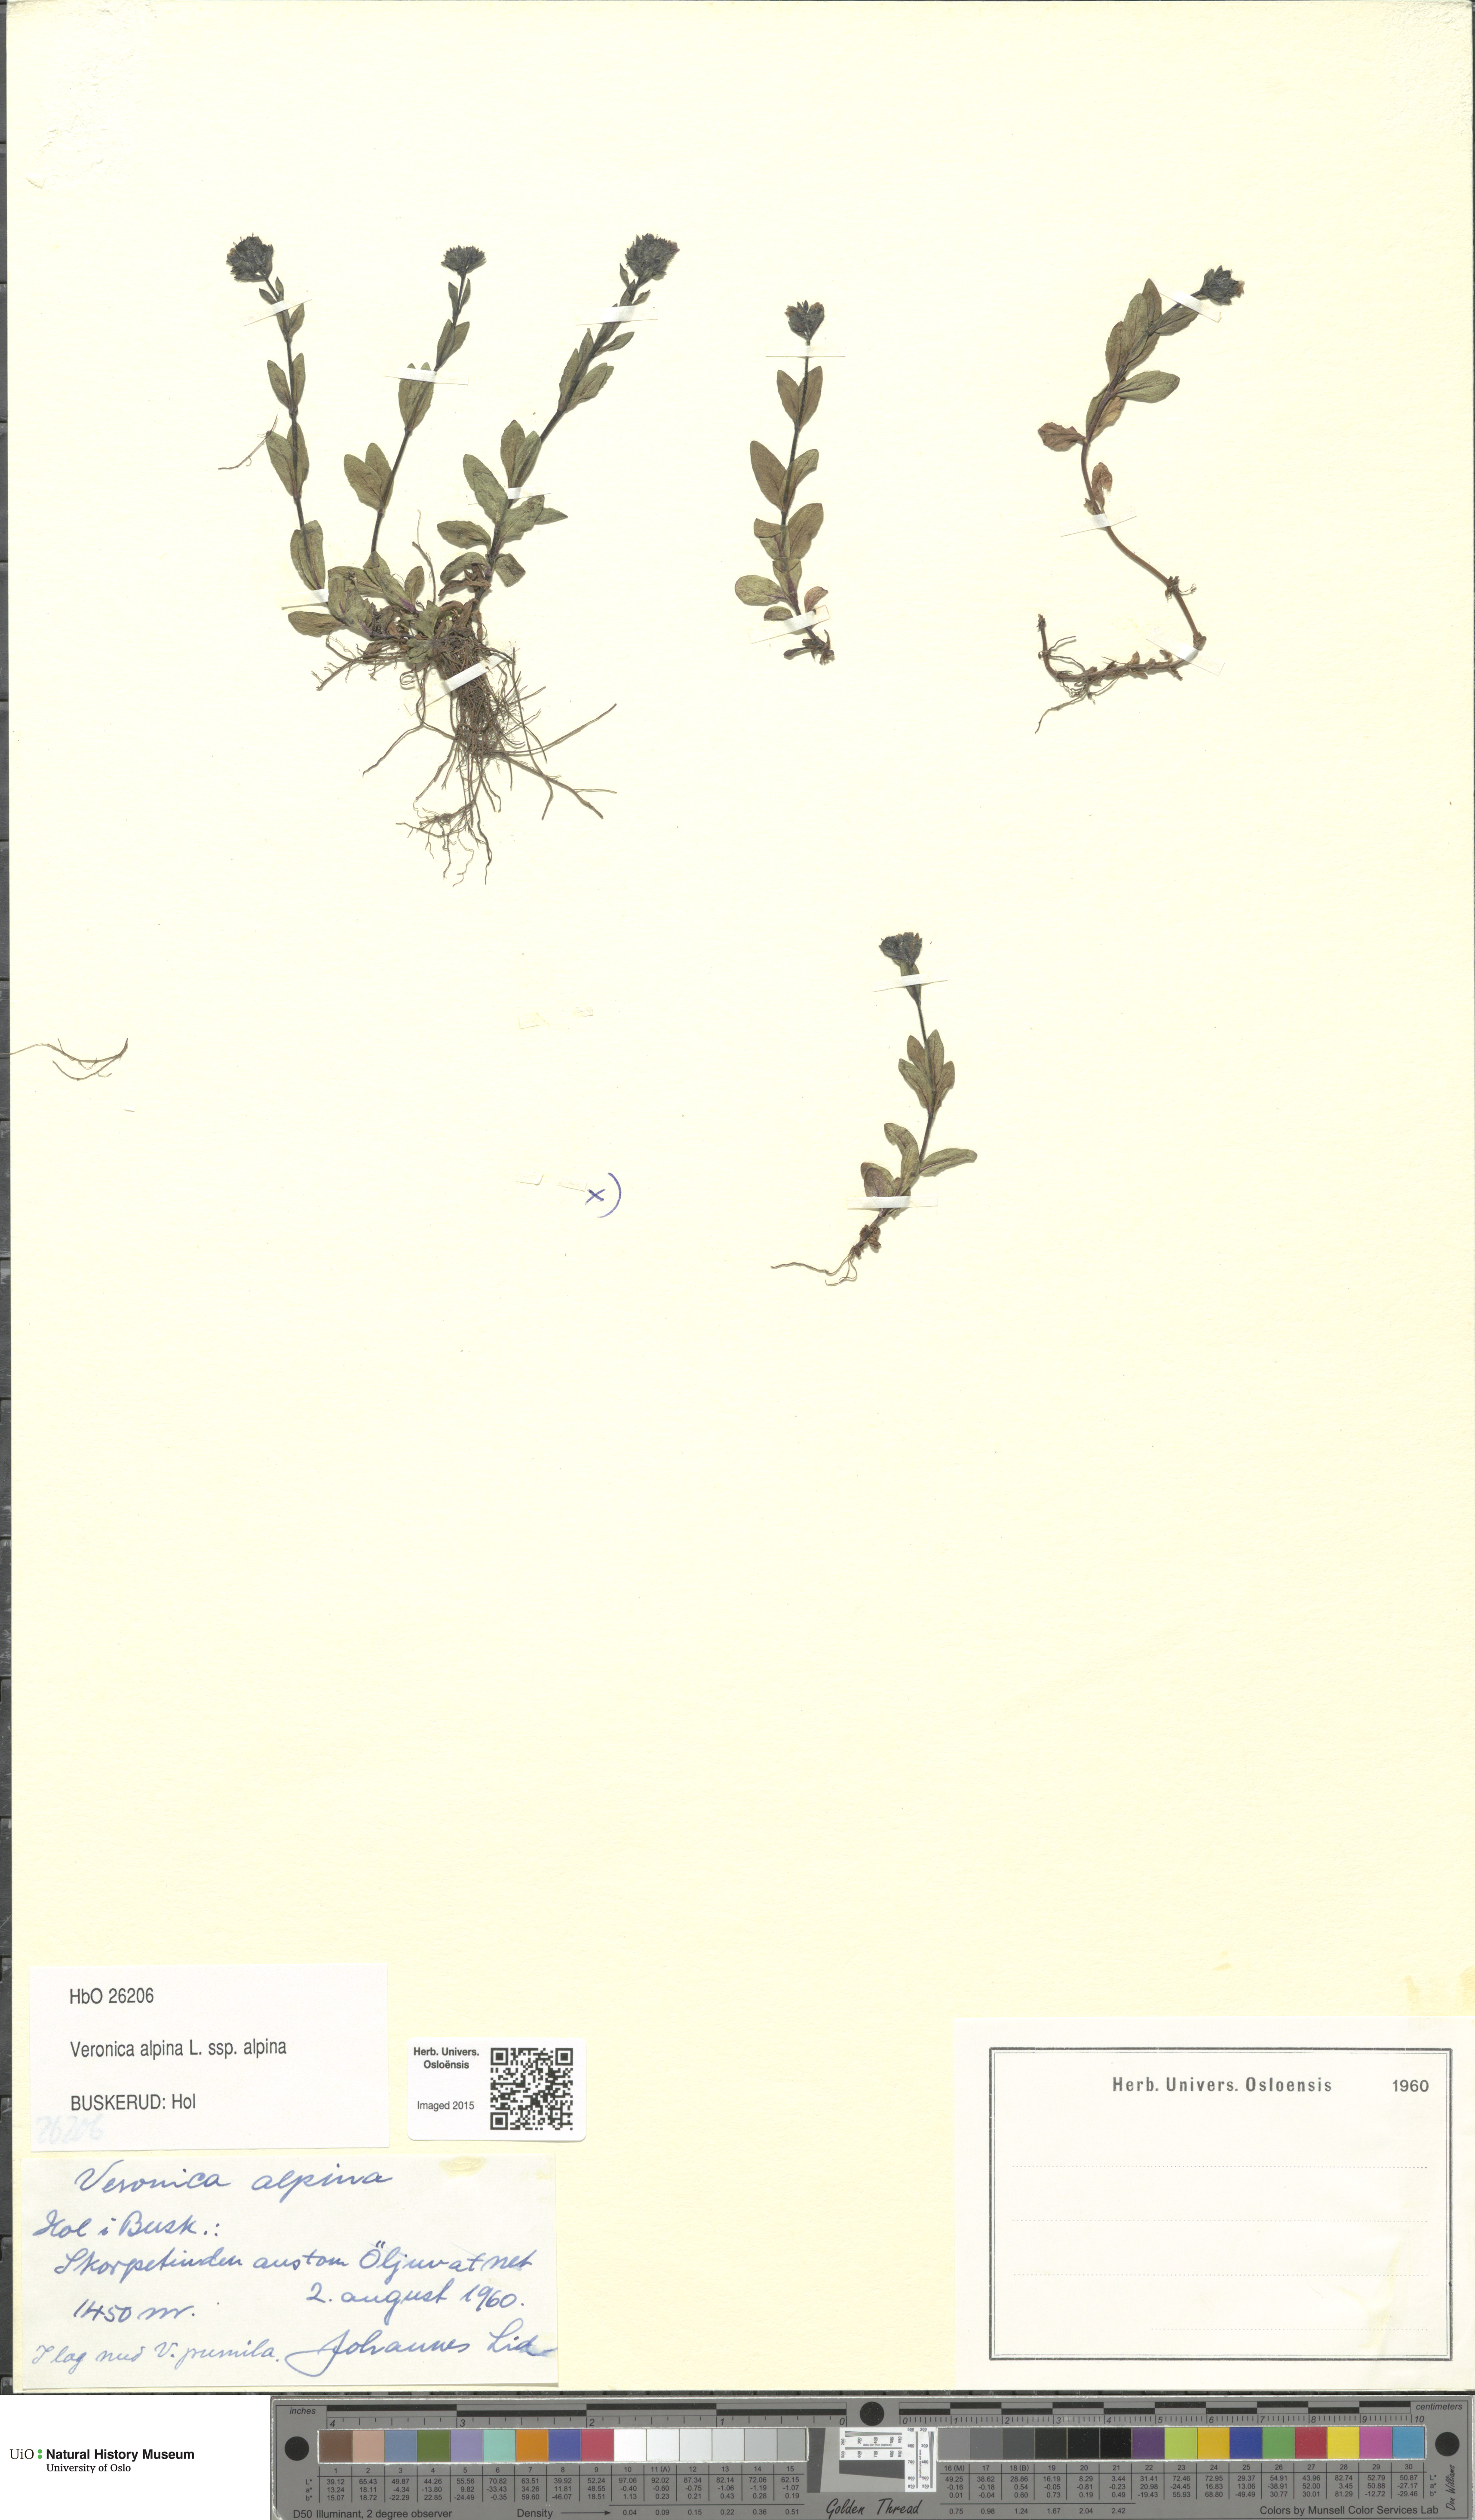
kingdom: Plantae
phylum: Tracheophyta
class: Magnoliopsida
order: Lamiales
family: Plantaginaceae
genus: Veronica
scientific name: Veronica alpina
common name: Alpine speedwell
